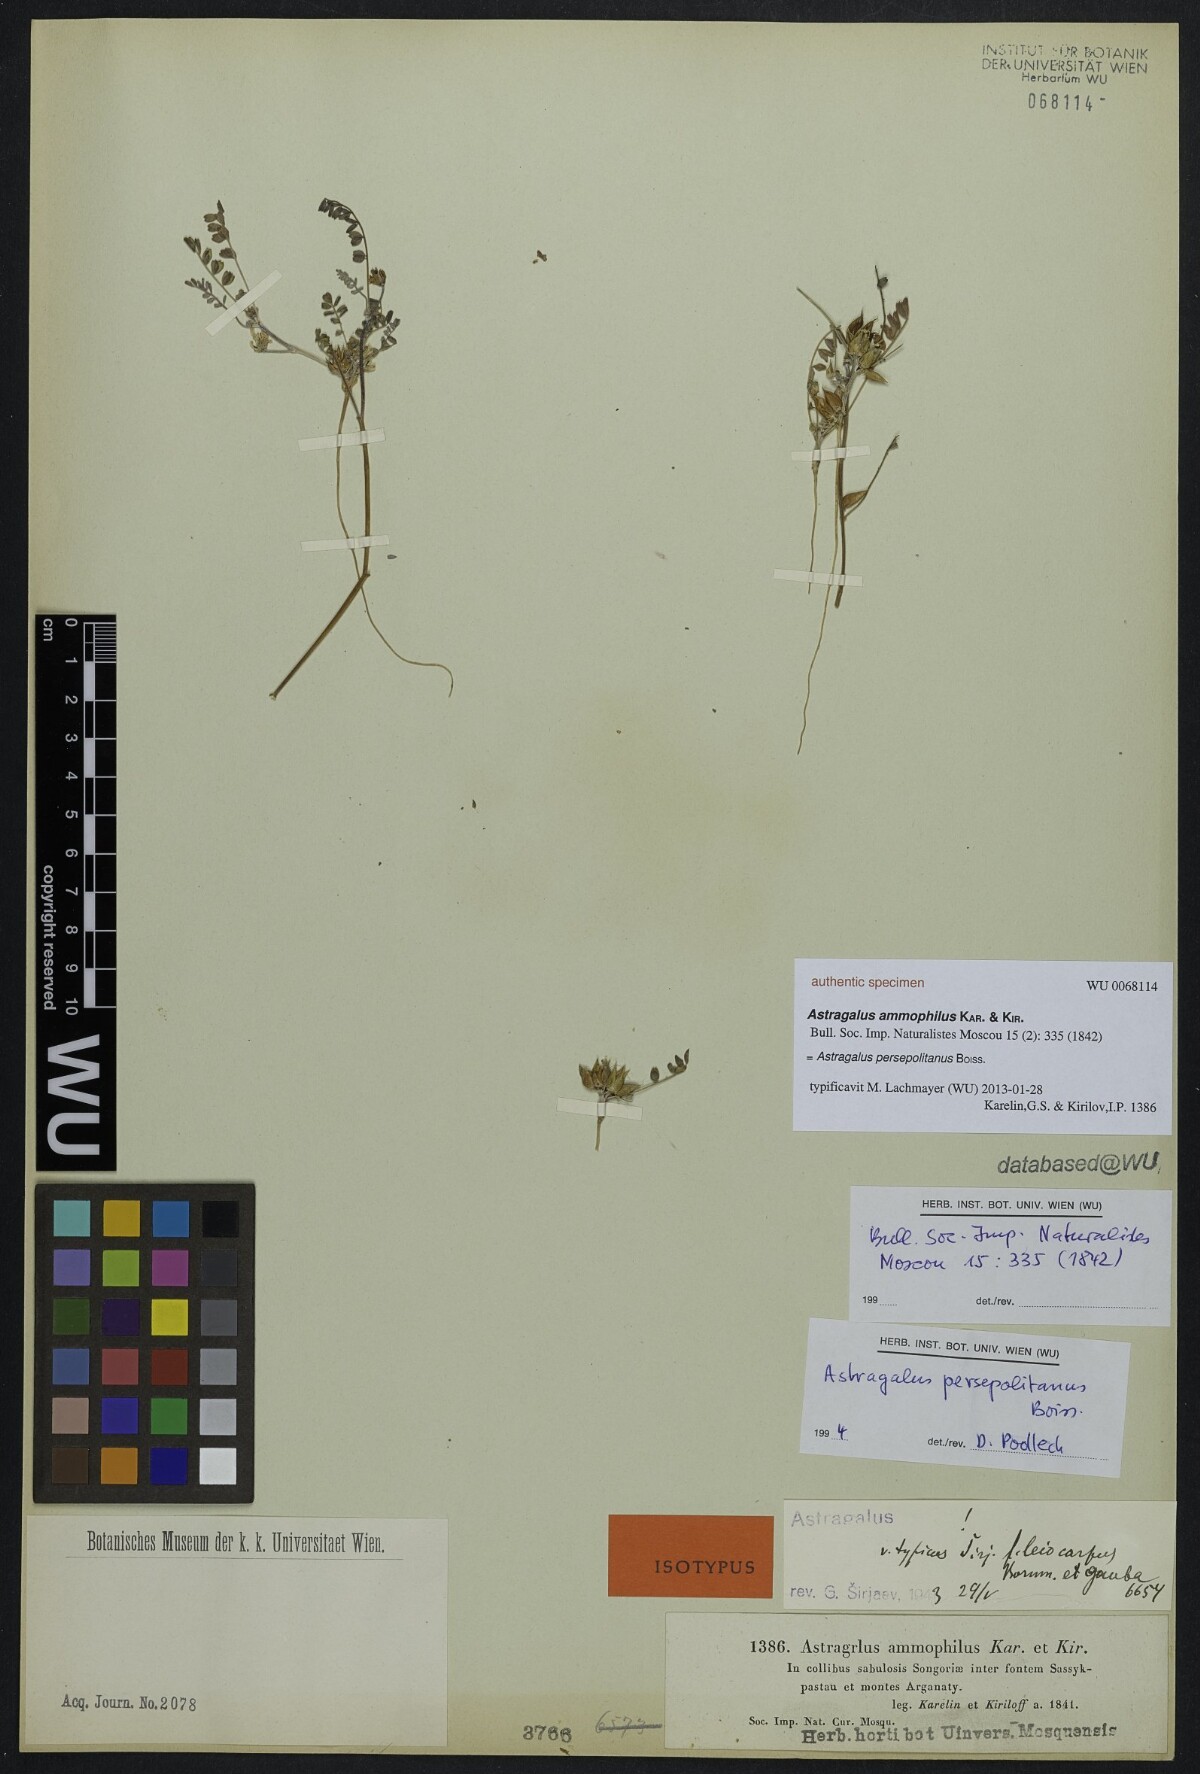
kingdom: Plantae
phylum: Tracheophyta
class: Magnoliopsida
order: Fabales
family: Fabaceae
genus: Astragalus
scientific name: Astragalus ammophilus
